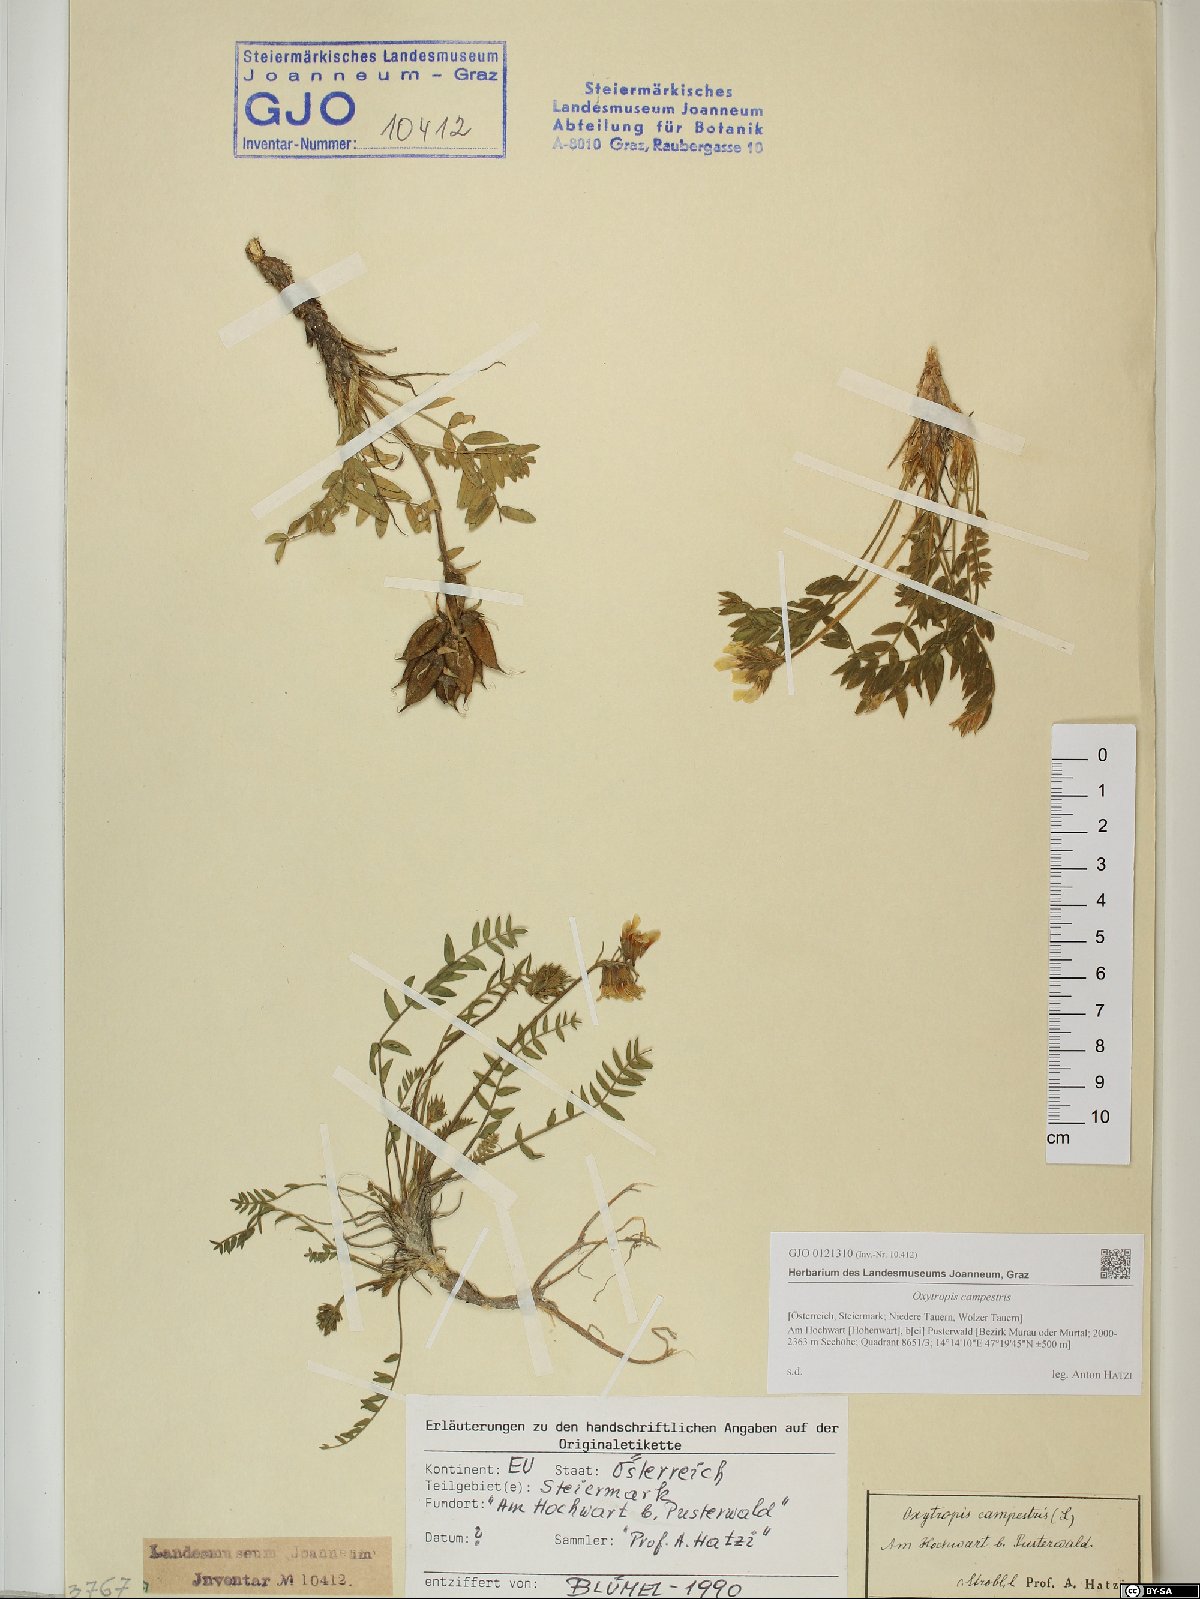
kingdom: Plantae
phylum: Tracheophyta
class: Magnoliopsida
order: Fabales
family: Fabaceae
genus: Oxytropis
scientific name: Oxytropis campestris
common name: Field locoweed
